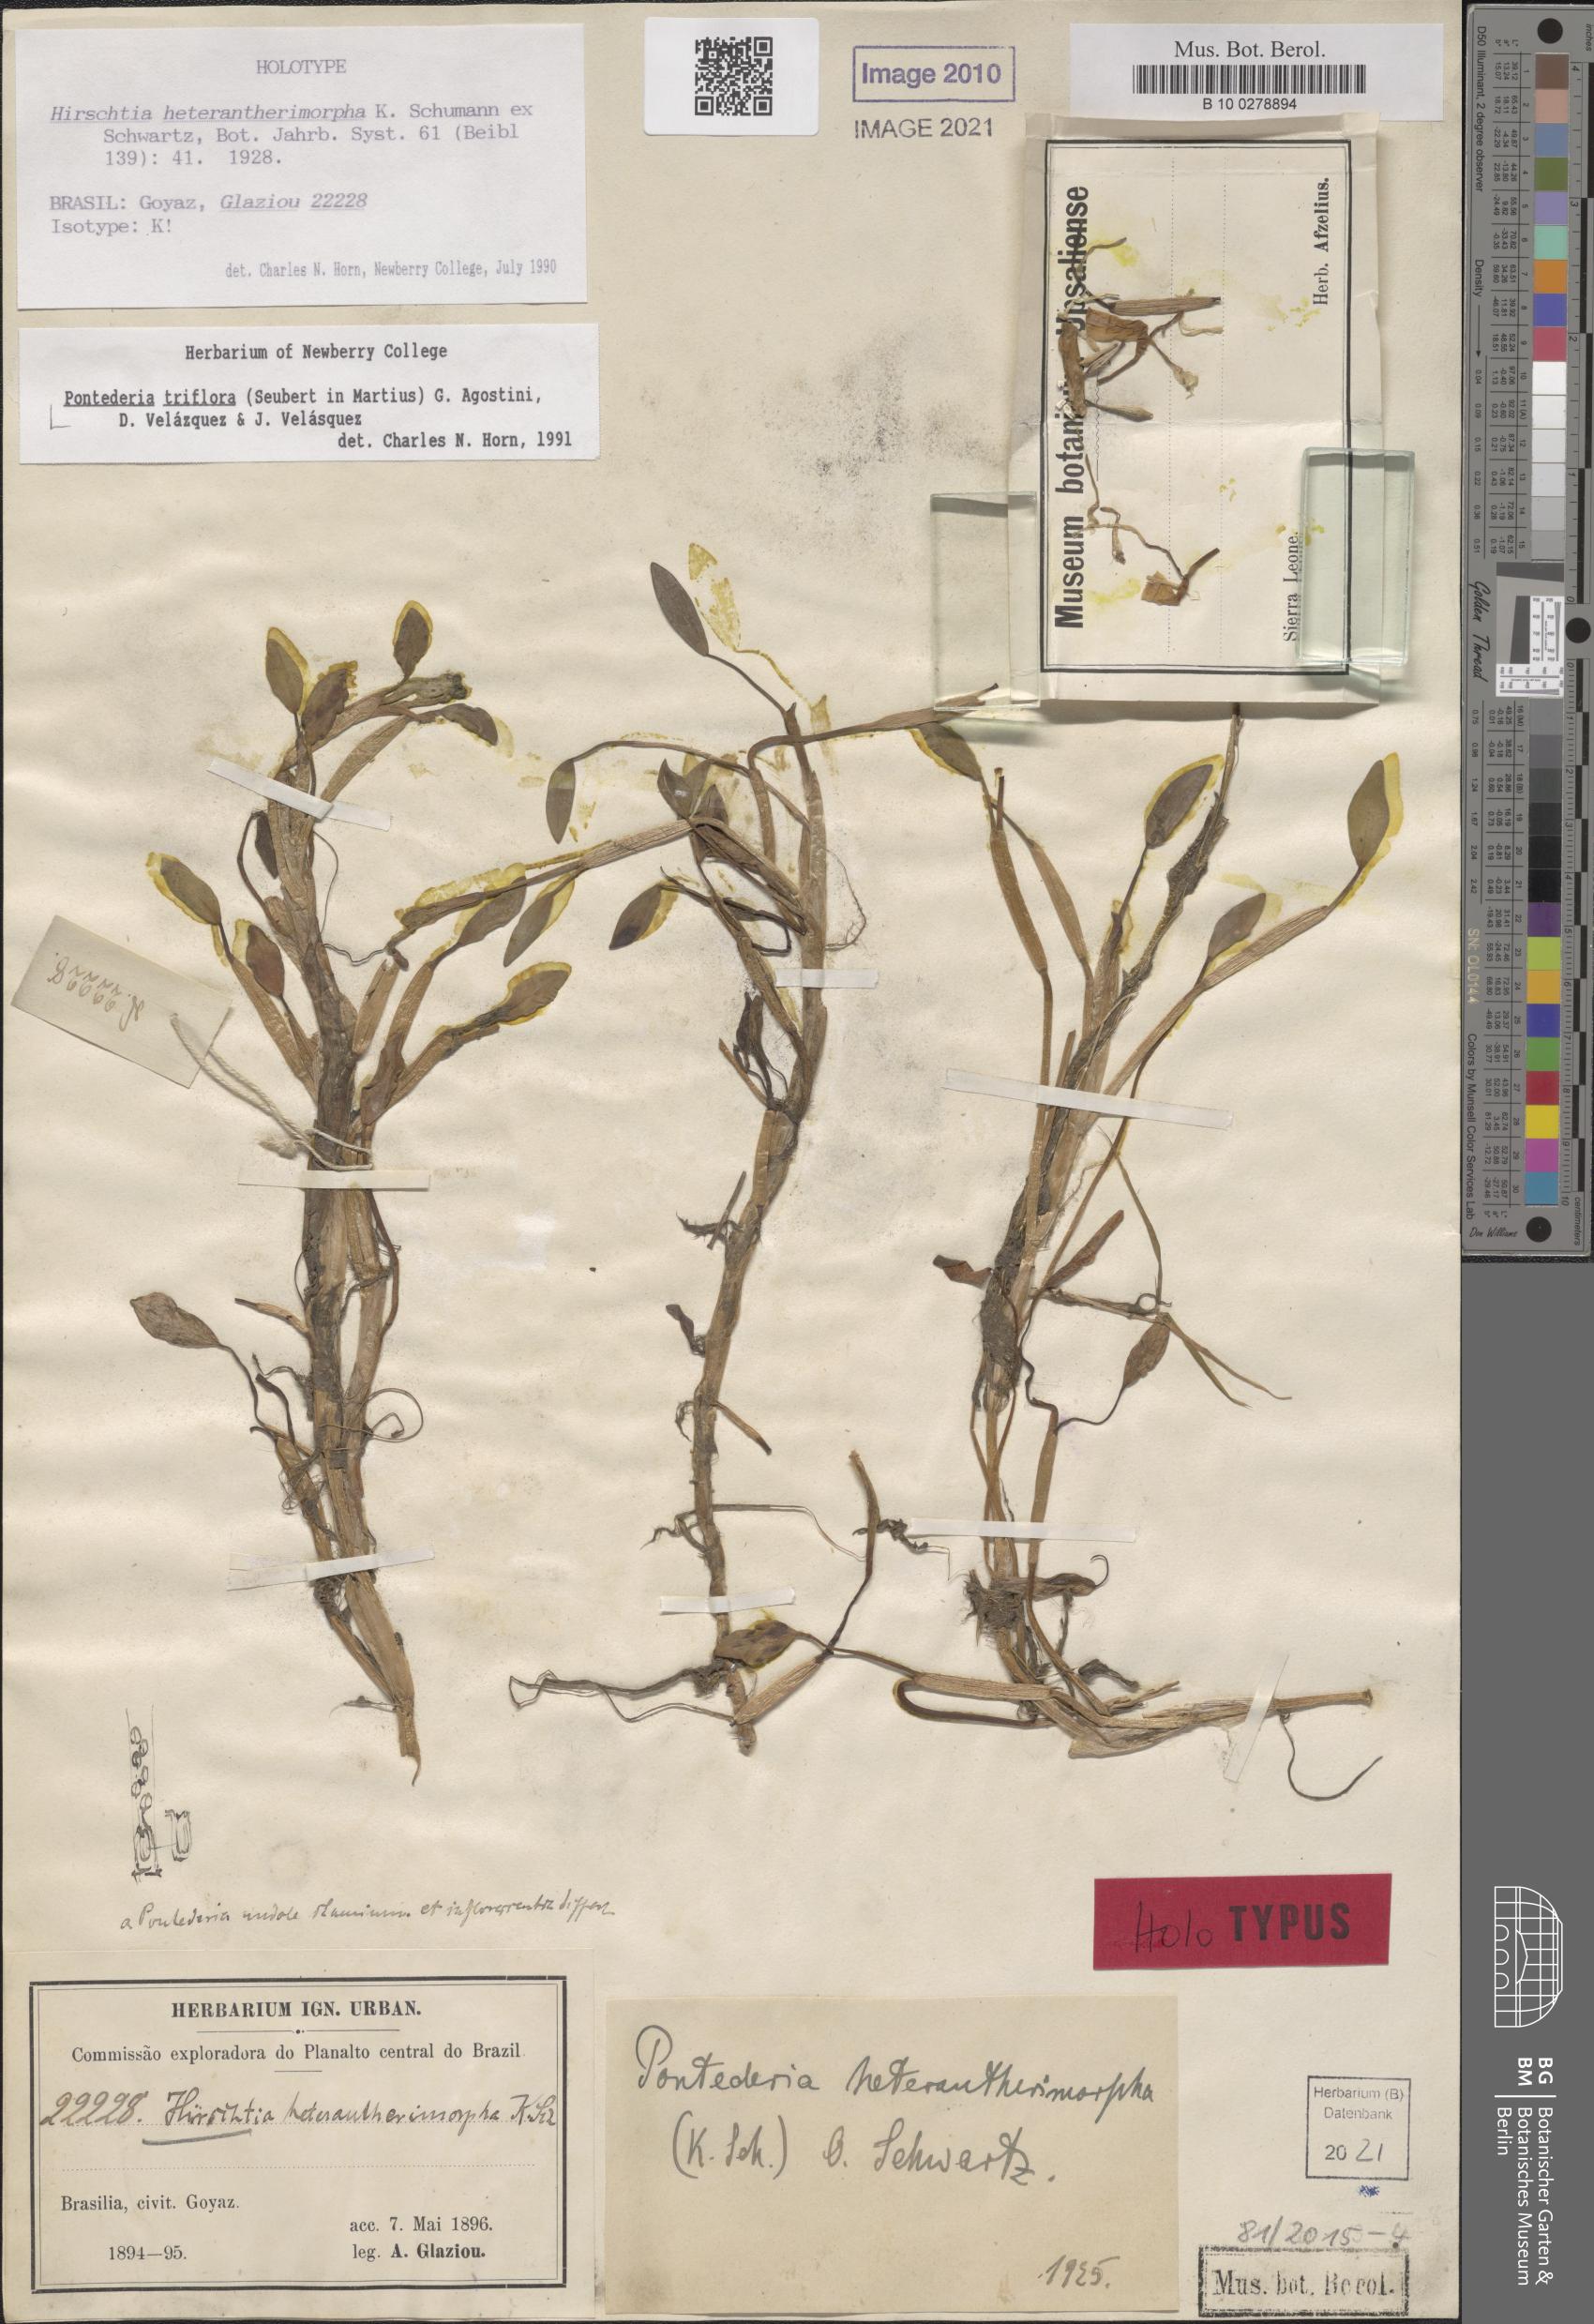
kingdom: Plantae
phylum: Tracheophyta
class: Liliopsida
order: Commelinales
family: Pontederiaceae
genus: Pontederia
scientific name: Pontederia triflora
